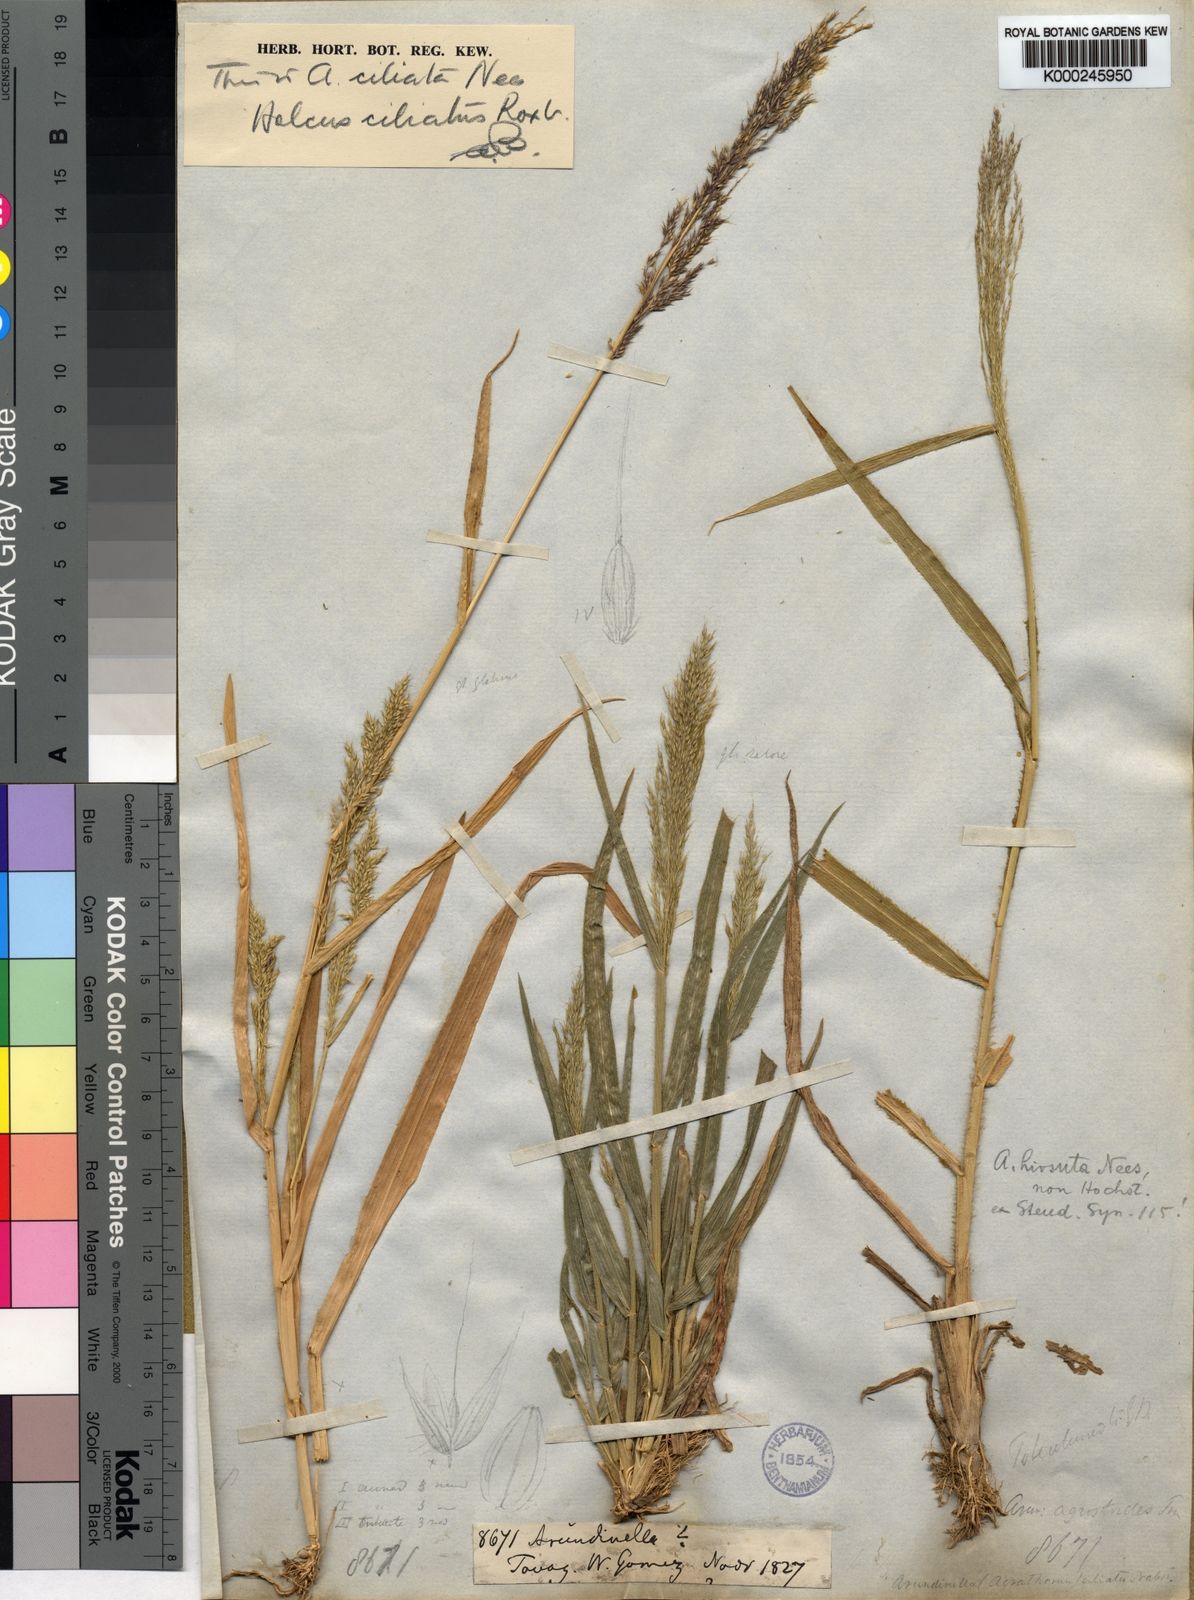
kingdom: Plantae
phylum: Tracheophyta
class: Liliopsida
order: Poales
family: Poaceae
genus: Arundinella
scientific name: Arundinella ciliata
